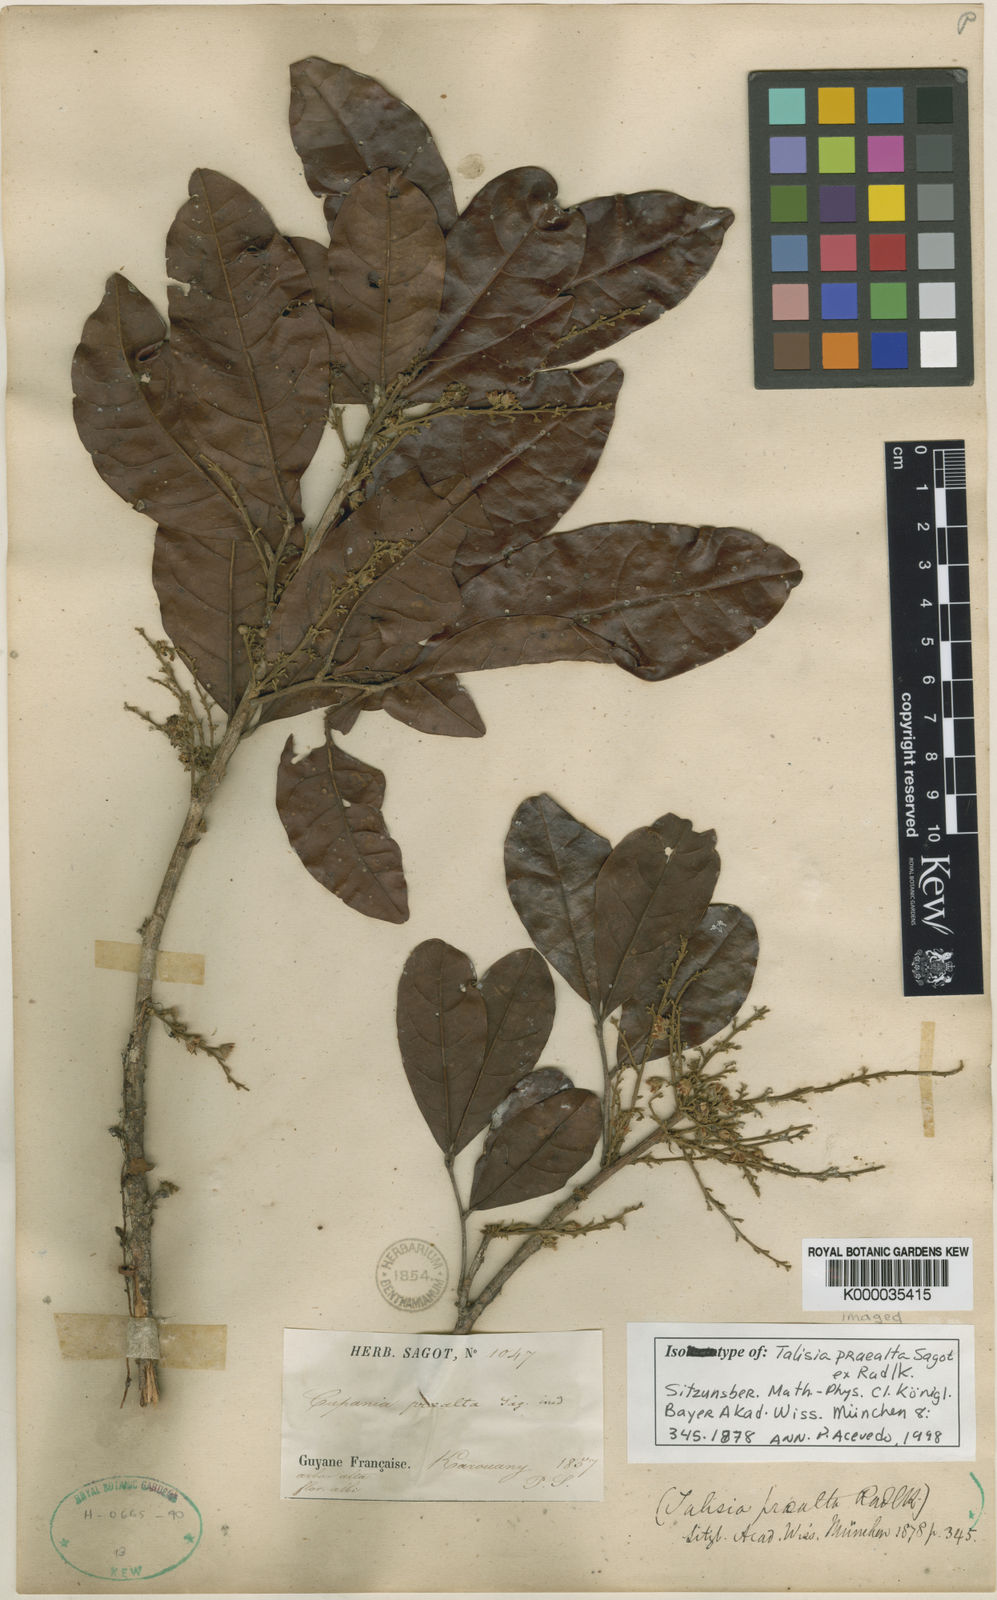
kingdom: Plantae
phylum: Tracheophyta
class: Magnoliopsida
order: Sapindales
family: Sapindaceae
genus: Talisia
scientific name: Talisia praealta
